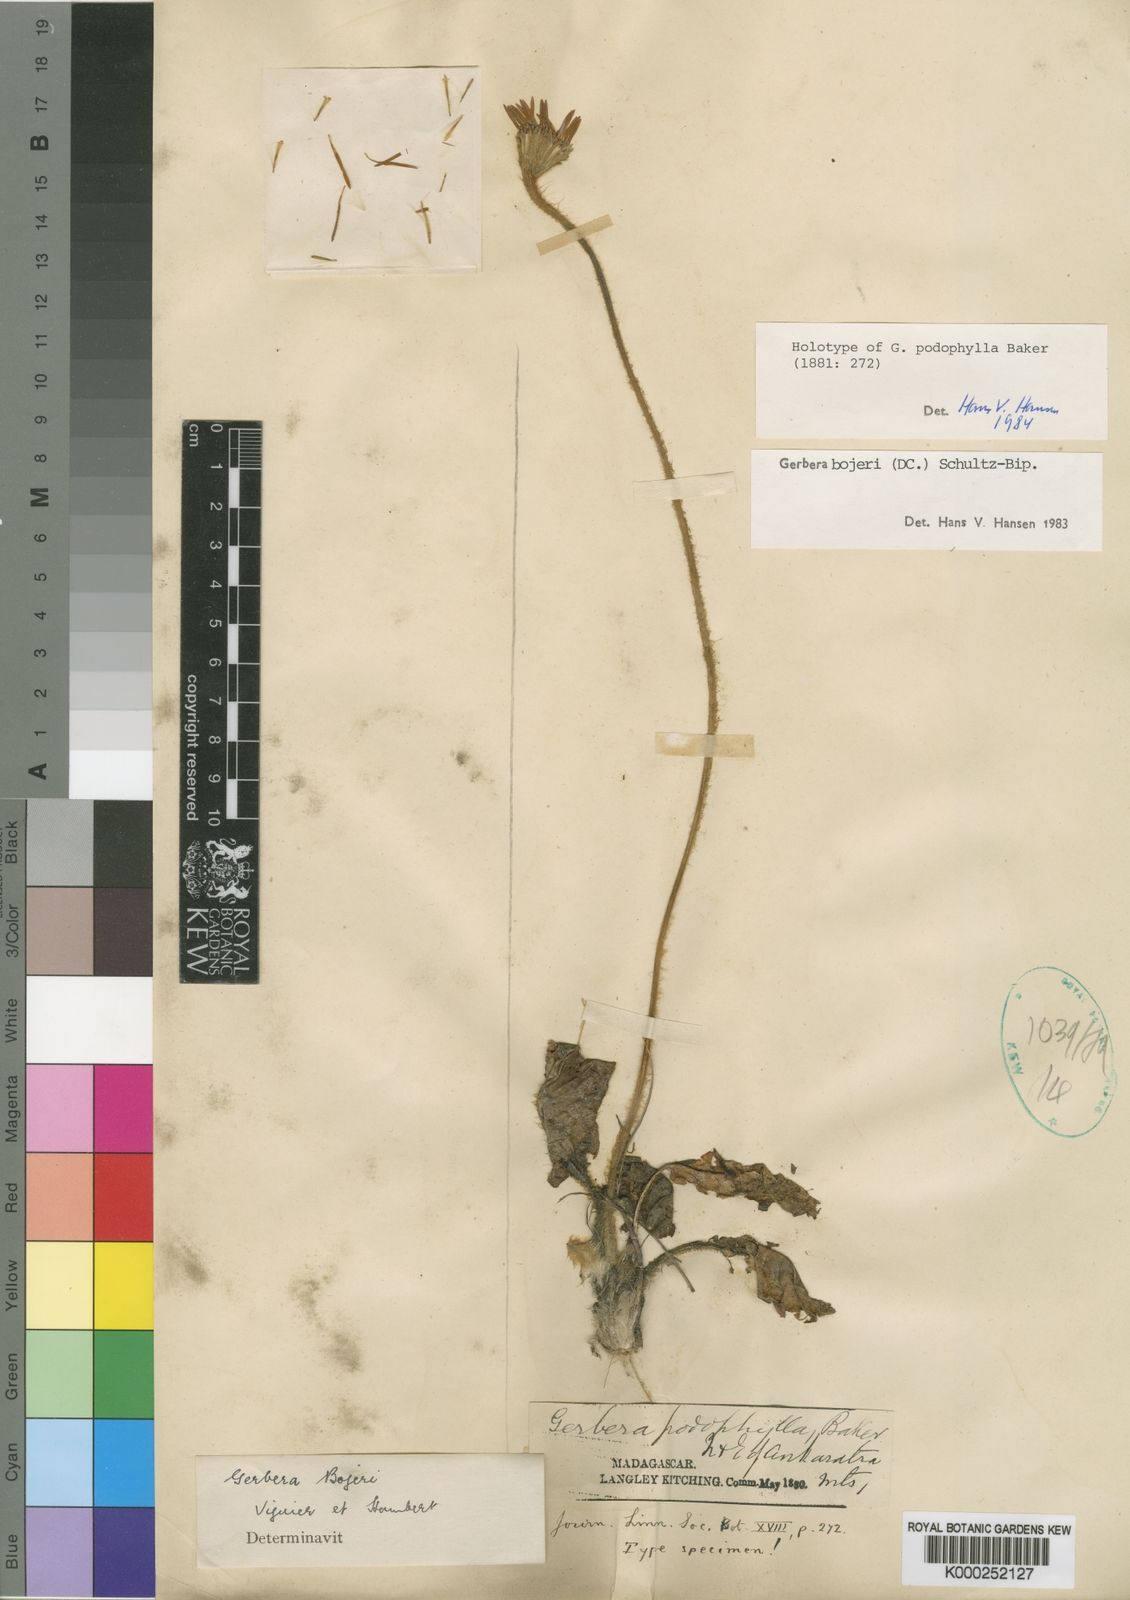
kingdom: Plantae
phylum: Tracheophyta
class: Magnoliopsida
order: Asterales
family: Asteraceae
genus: Gerbera
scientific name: Gerbera bojeri
